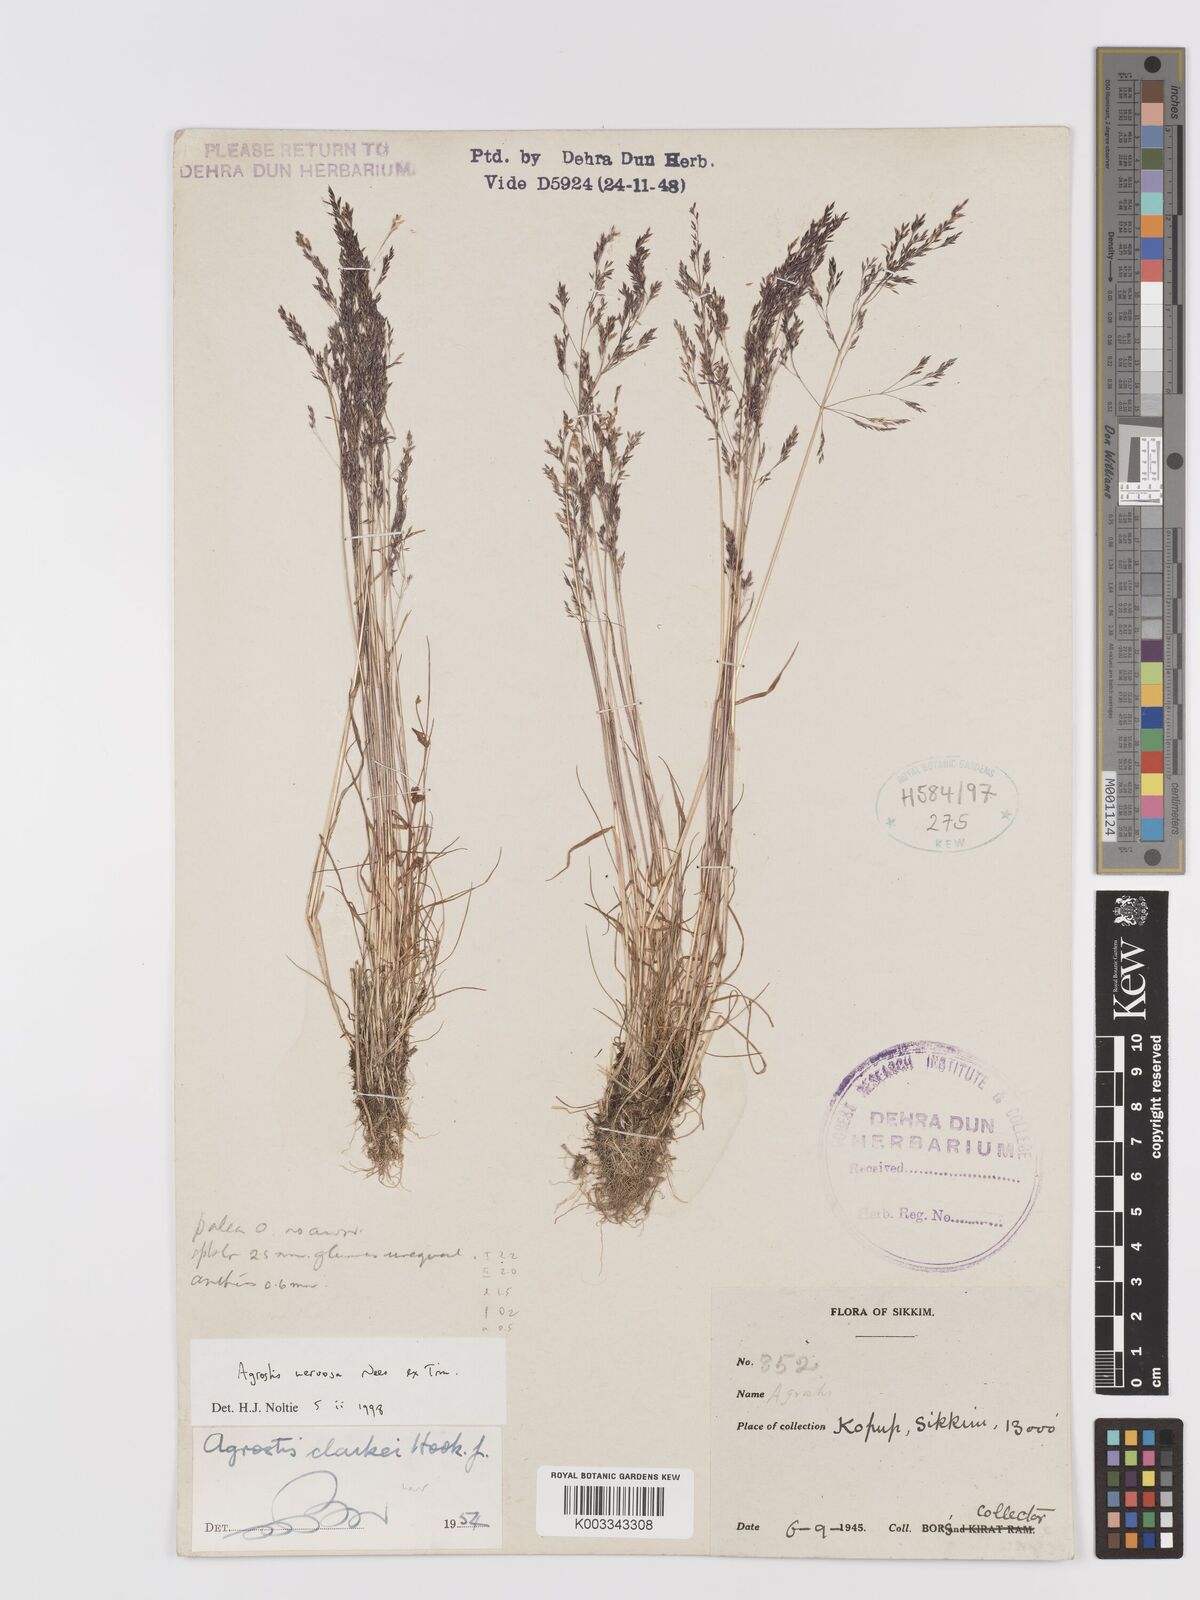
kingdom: Plantae
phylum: Tracheophyta
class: Liliopsida
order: Poales
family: Poaceae
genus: Agrostis
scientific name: Agrostis nervosa
